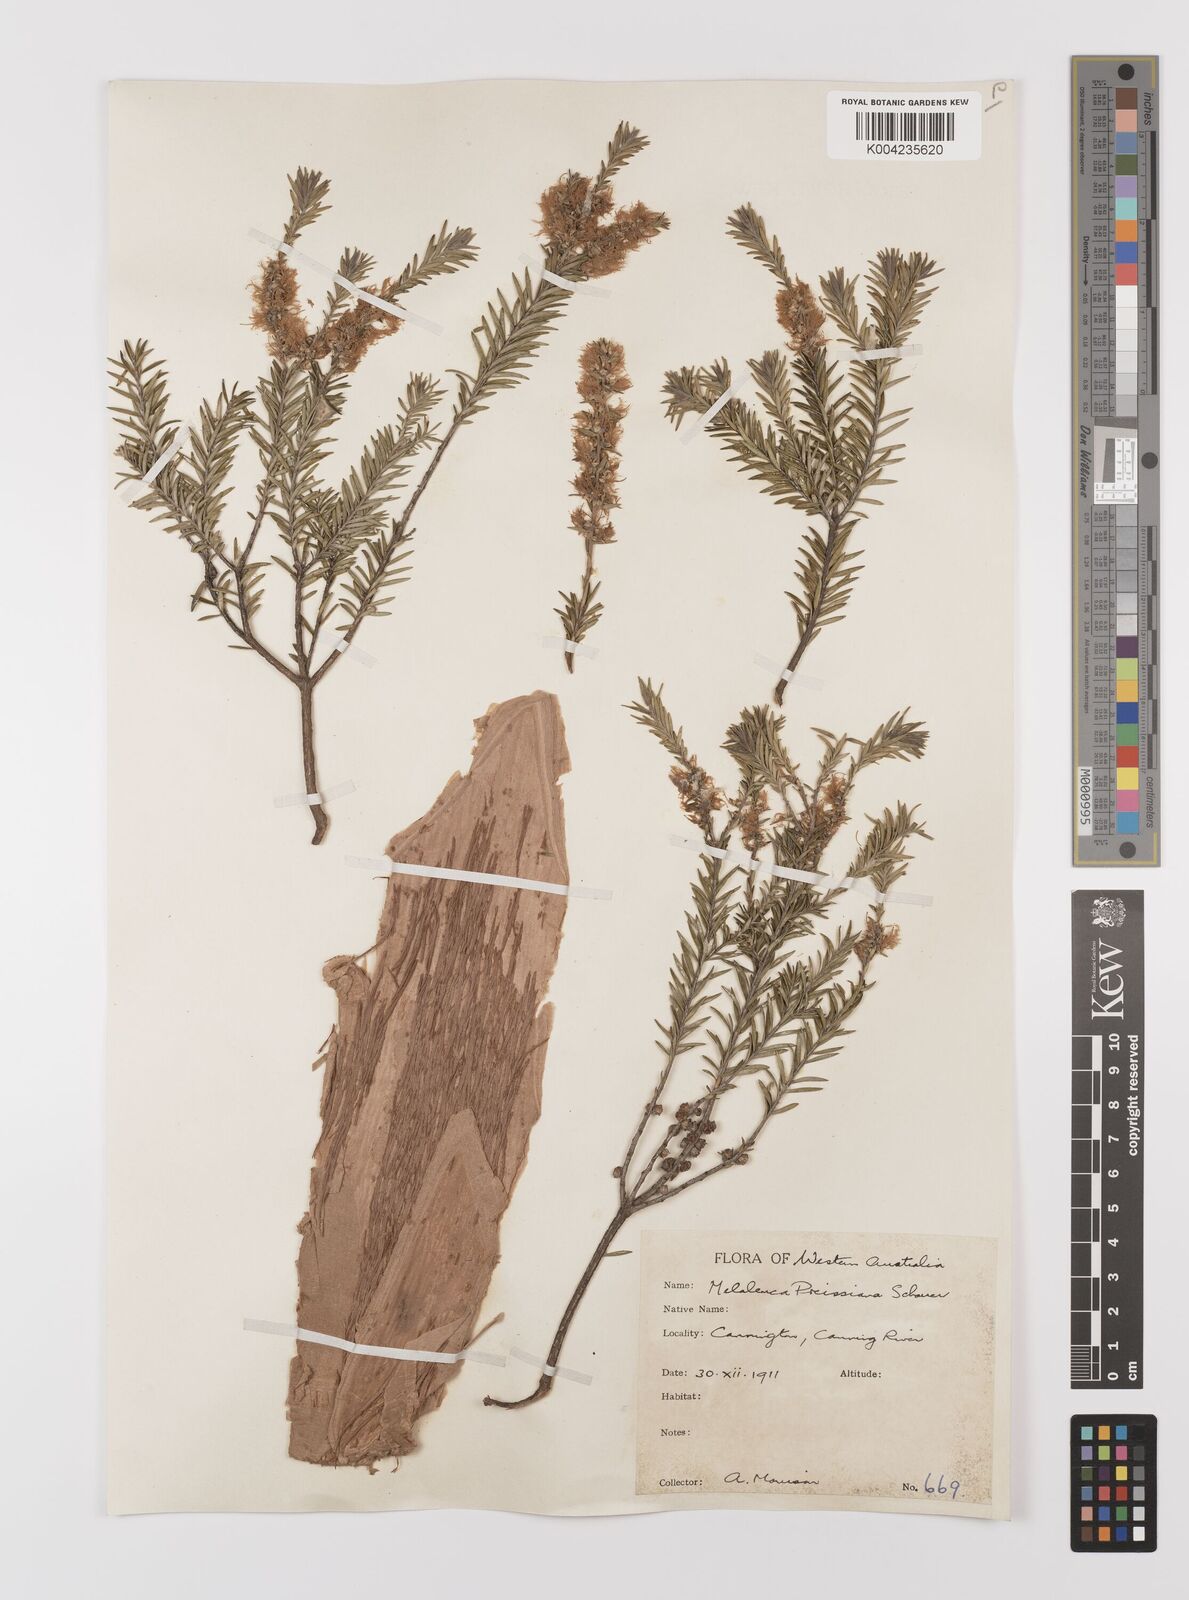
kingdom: Plantae
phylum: Tracheophyta
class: Magnoliopsida
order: Myrtales
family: Myrtaceae
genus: Melaleuca
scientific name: Melaleuca preissiana
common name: Preiss's paperbark
